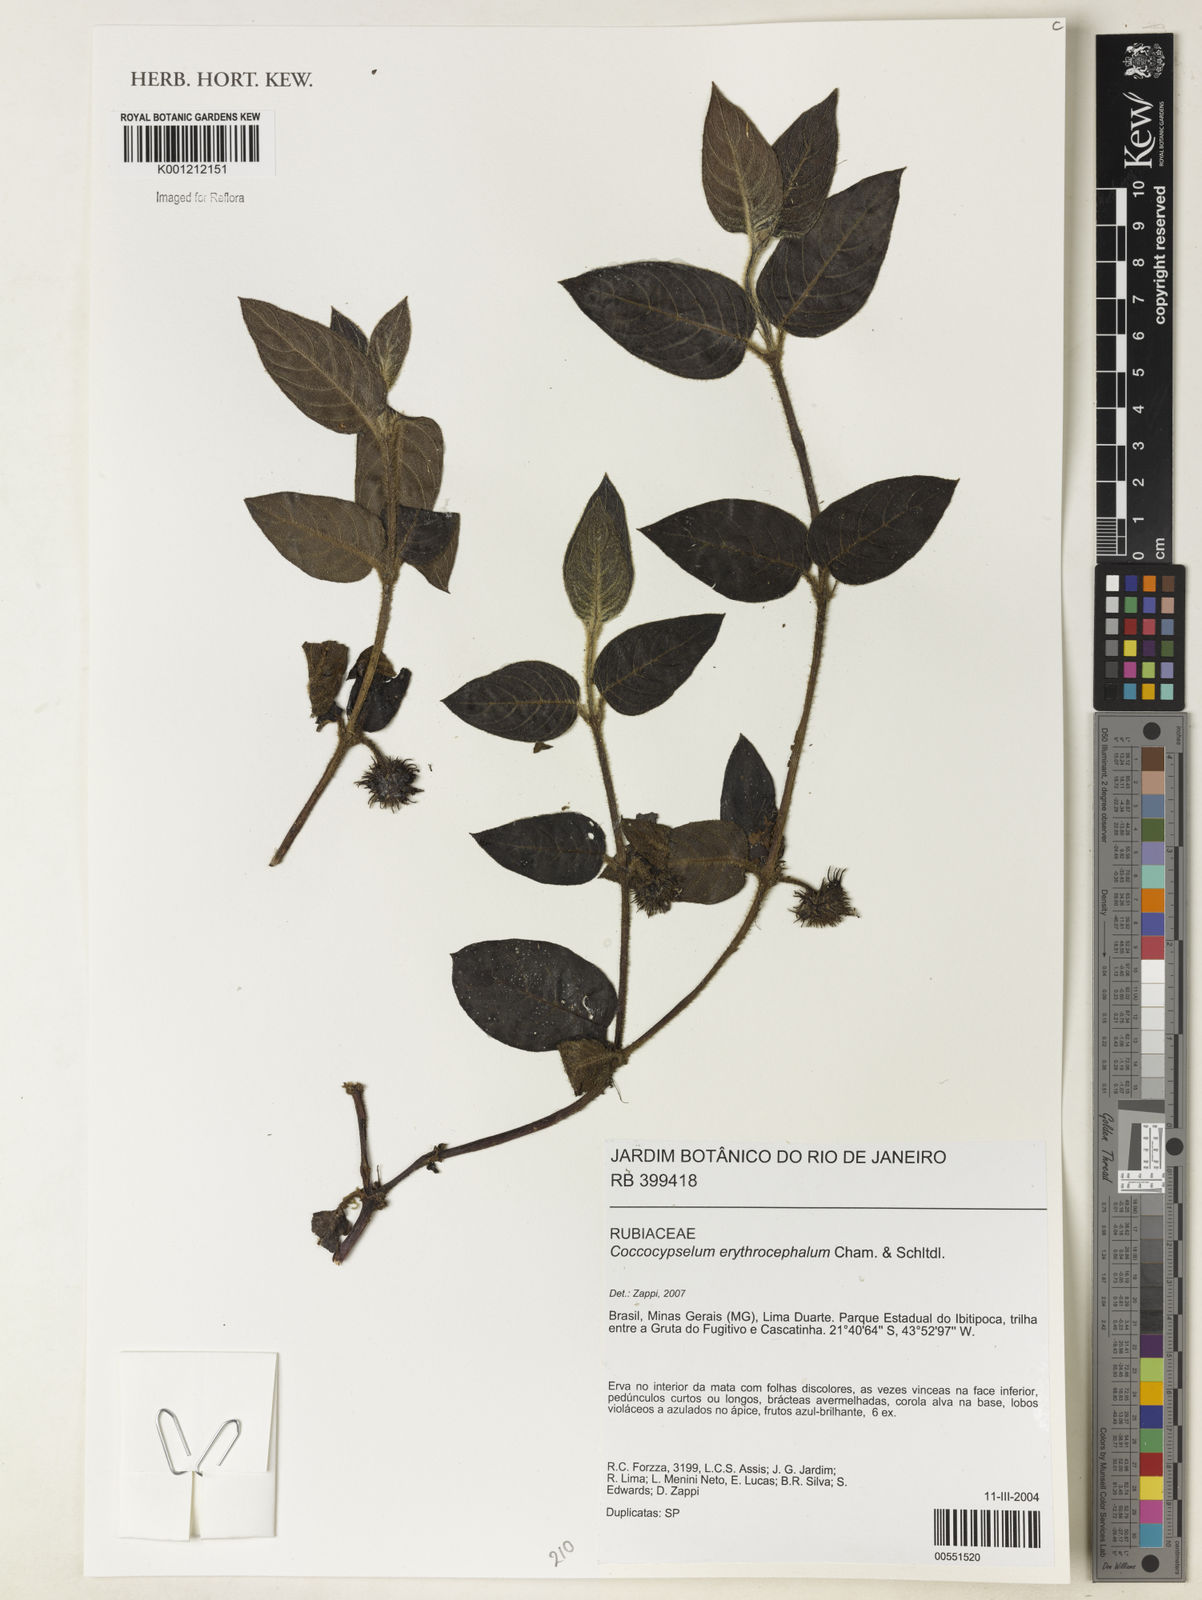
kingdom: Plantae
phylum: Tracheophyta
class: Magnoliopsida
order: Gentianales
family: Rubiaceae
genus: Coccocypselum
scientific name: Coccocypselum erythrocephalum
